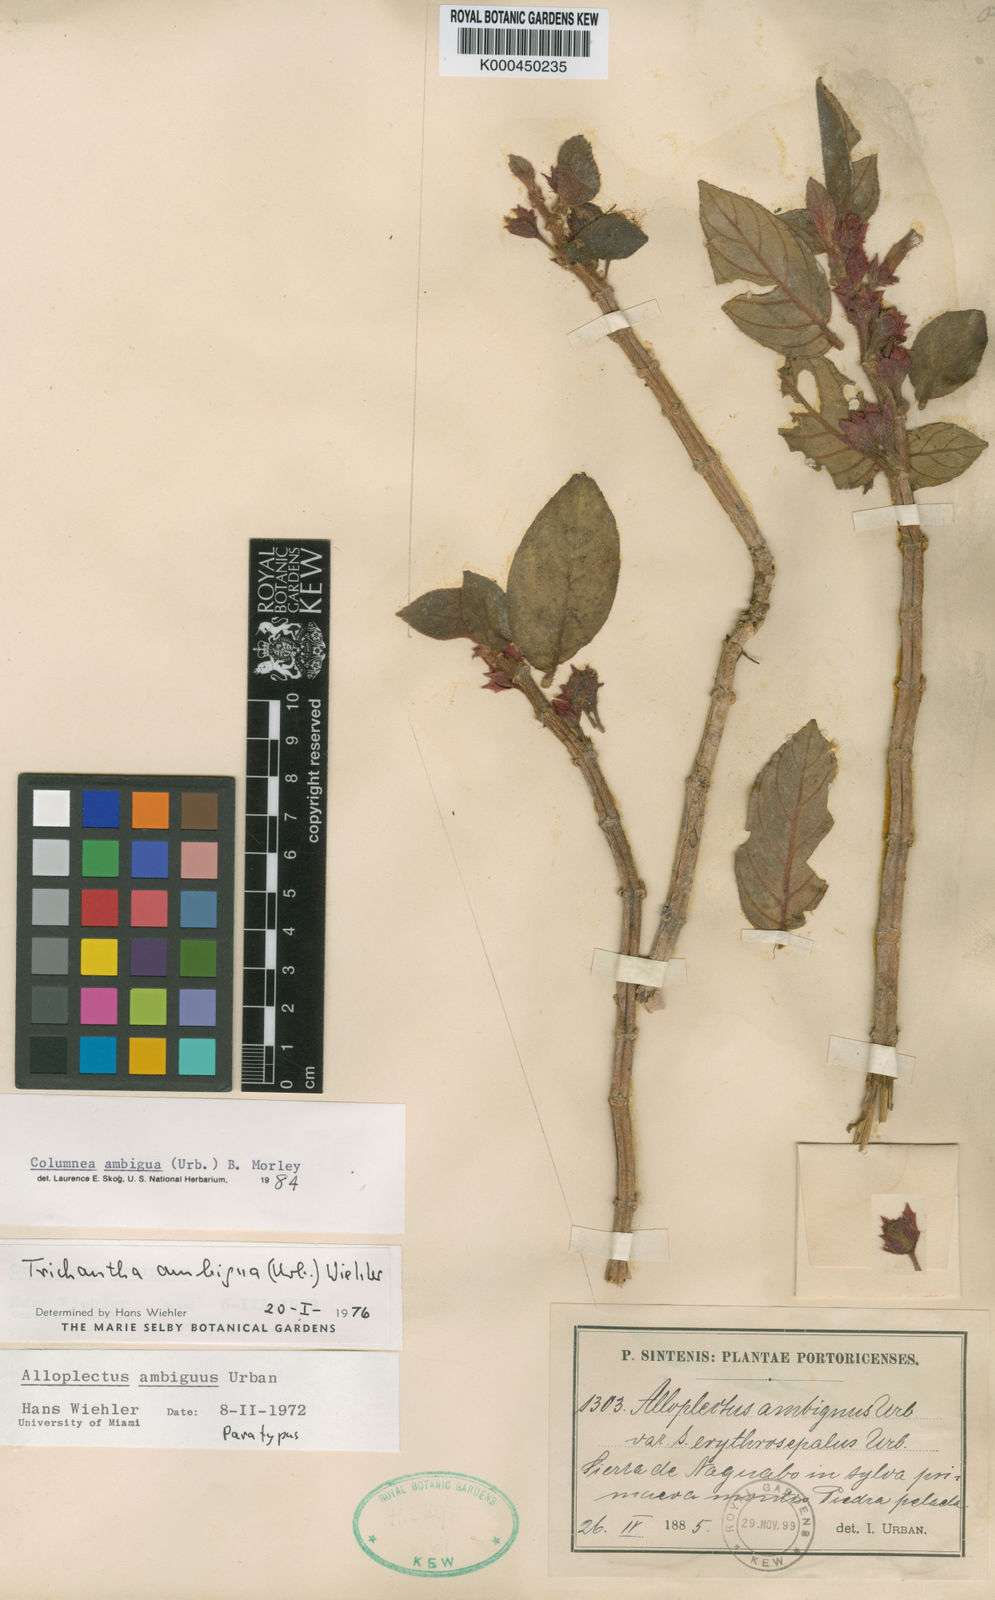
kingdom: Plantae
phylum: Tracheophyta
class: Magnoliopsida
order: Lamiales
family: Gesneriaceae
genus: Columnea
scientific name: Columnea ambigua
